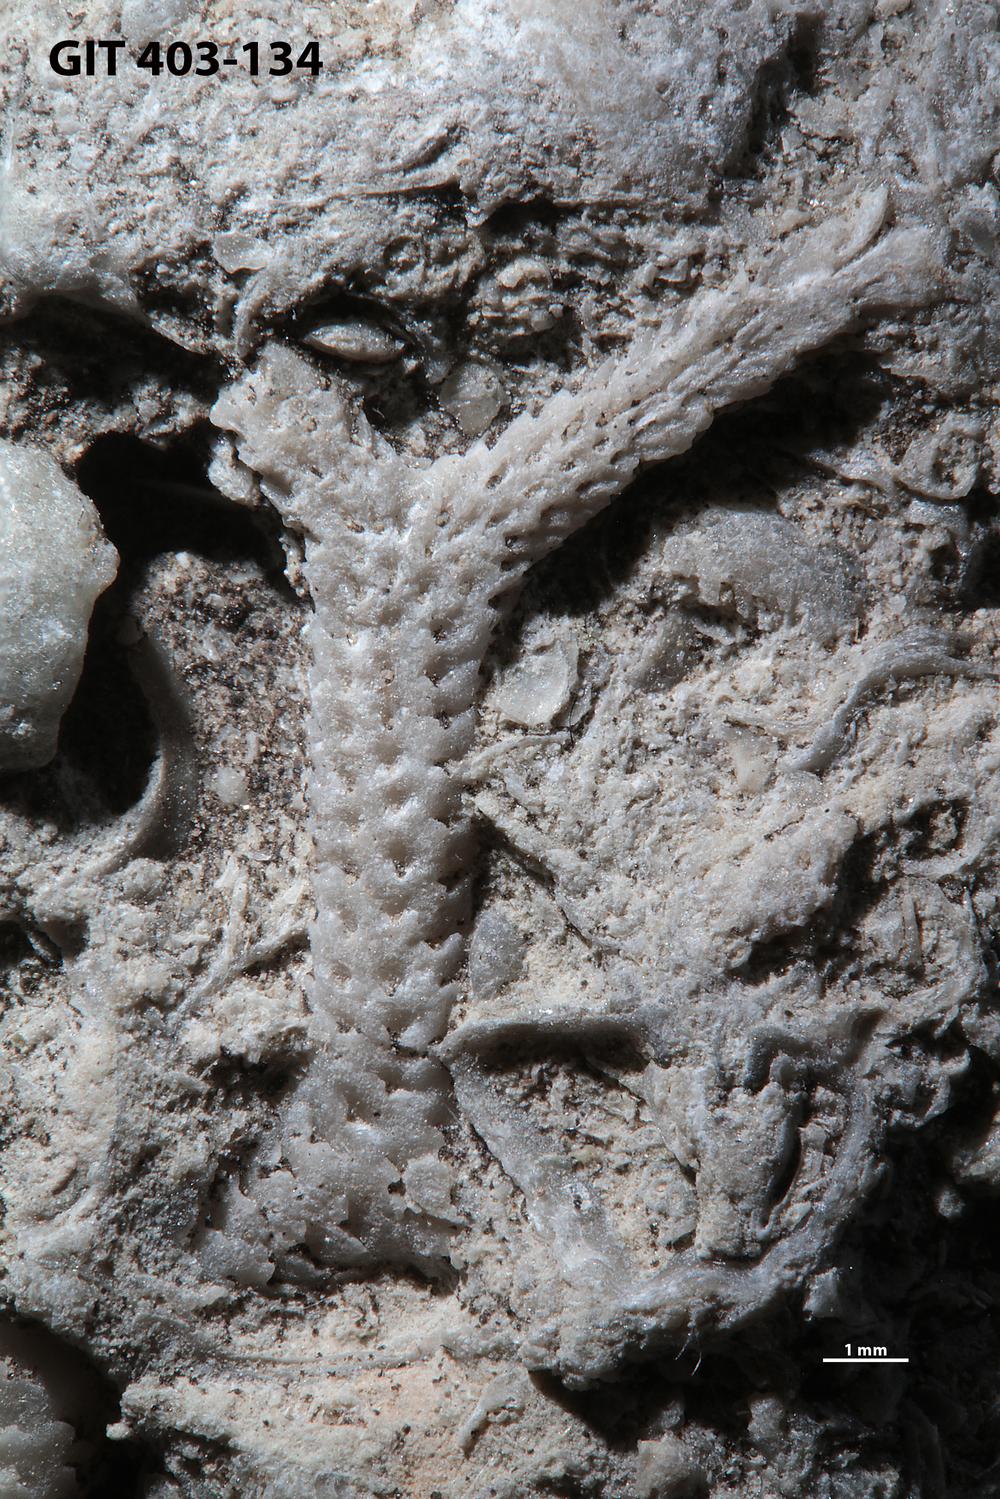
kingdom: Animalia
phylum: Bryozoa
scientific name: Bryozoa
